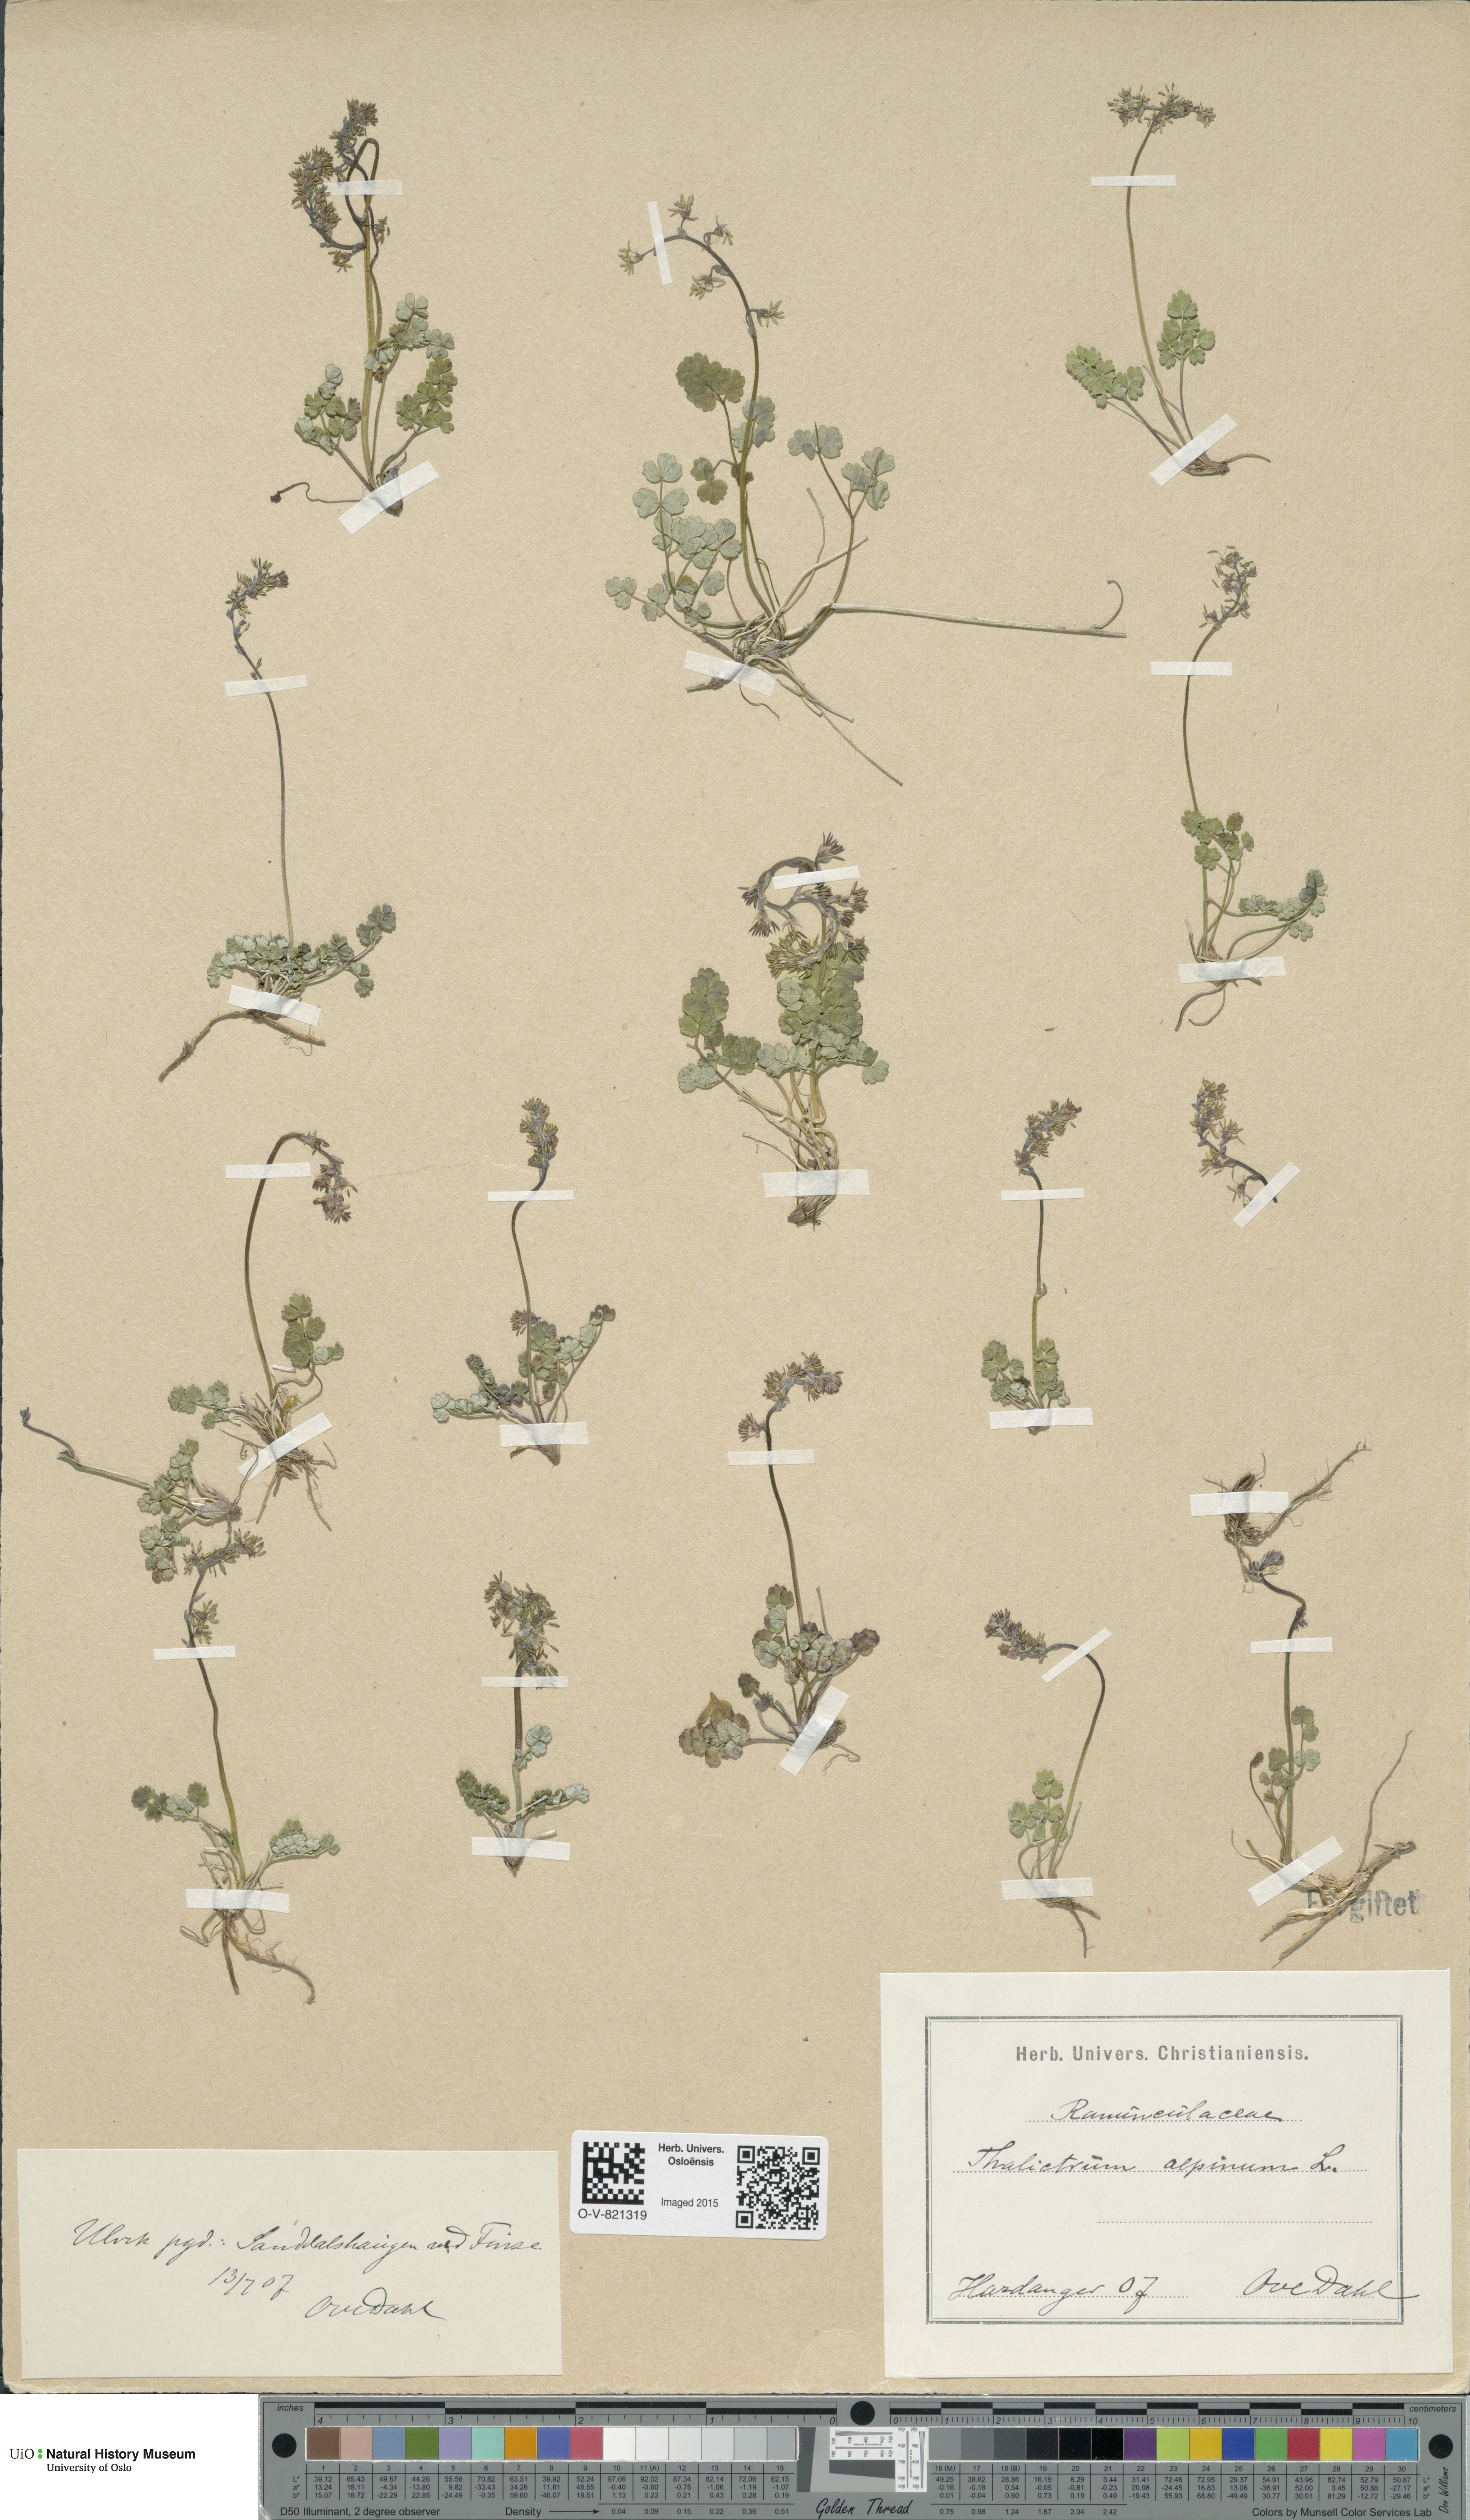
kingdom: Plantae
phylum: Tracheophyta
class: Magnoliopsida
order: Ranunculales
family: Ranunculaceae
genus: Thalictrum
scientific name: Thalictrum alpinum
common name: Alpine meadow-rue
